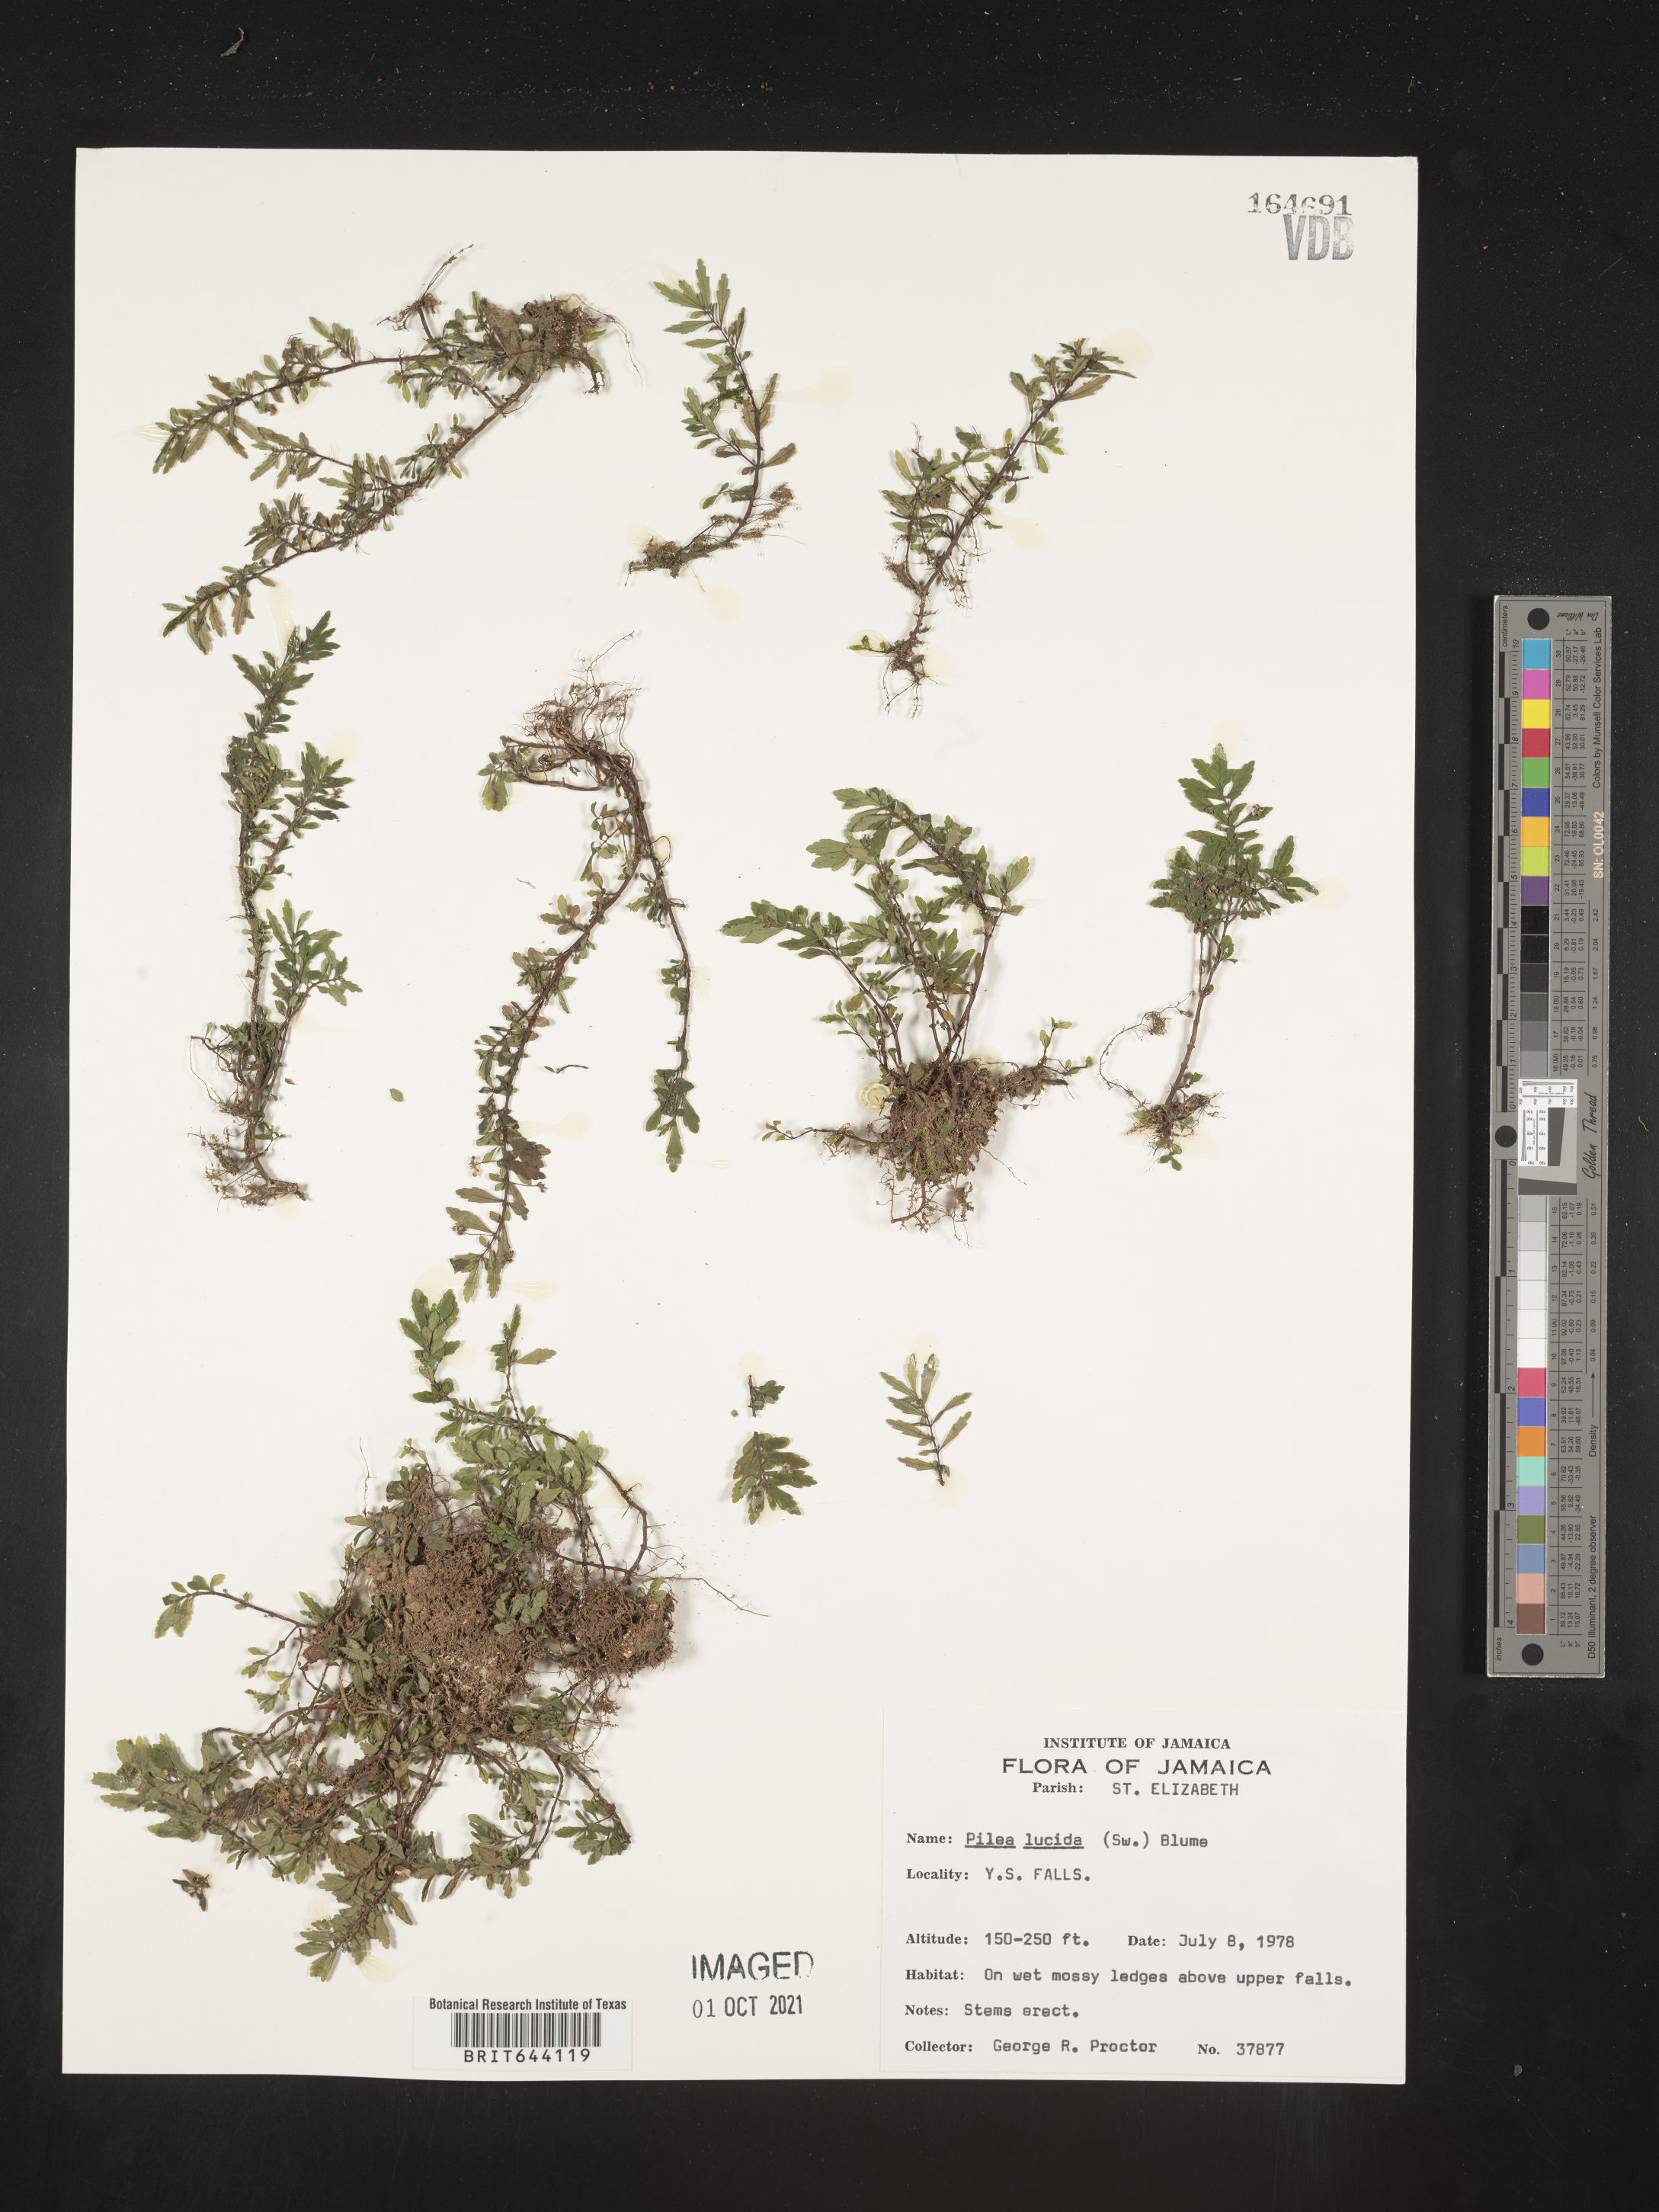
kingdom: Plantae
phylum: Tracheophyta
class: Magnoliopsida
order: Rosales
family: Urticaceae
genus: Pilea
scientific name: Pilea
